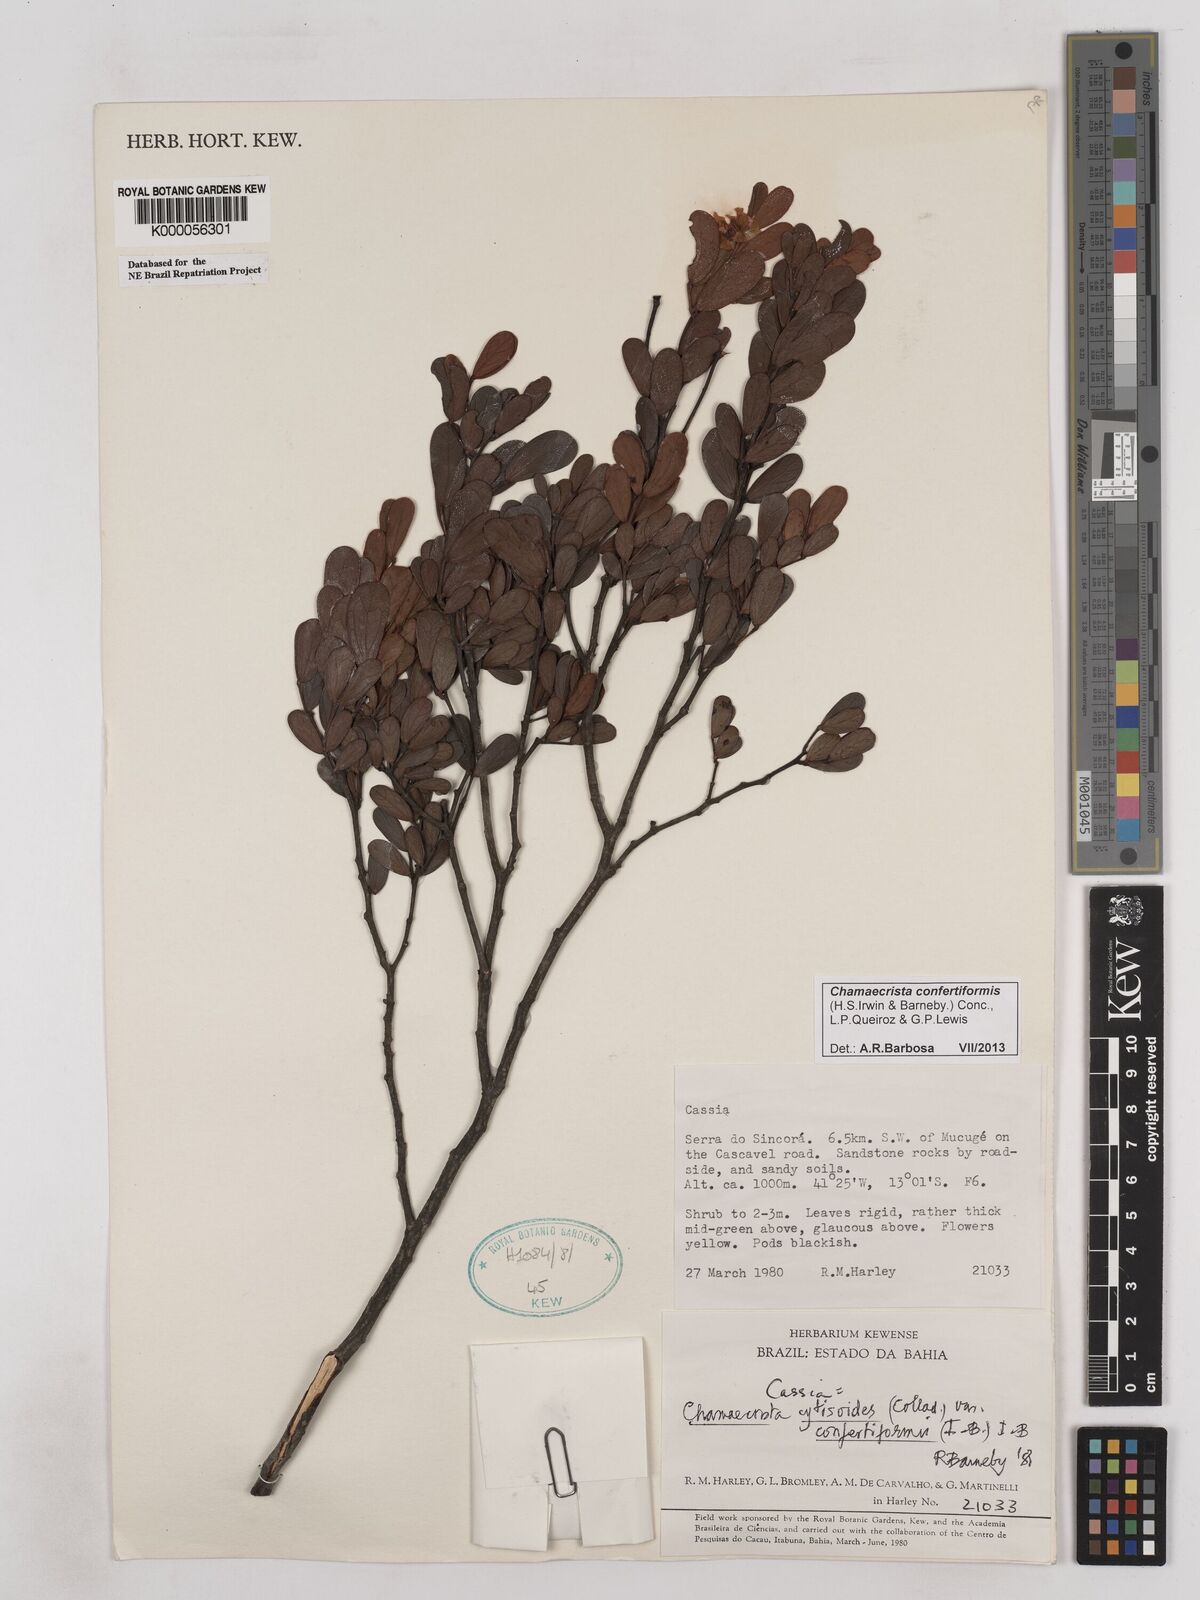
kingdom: Plantae
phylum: Tracheophyta
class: Magnoliopsida
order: Fabales
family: Fabaceae
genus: Chamaecrista
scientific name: Chamaecrista confertiformis
